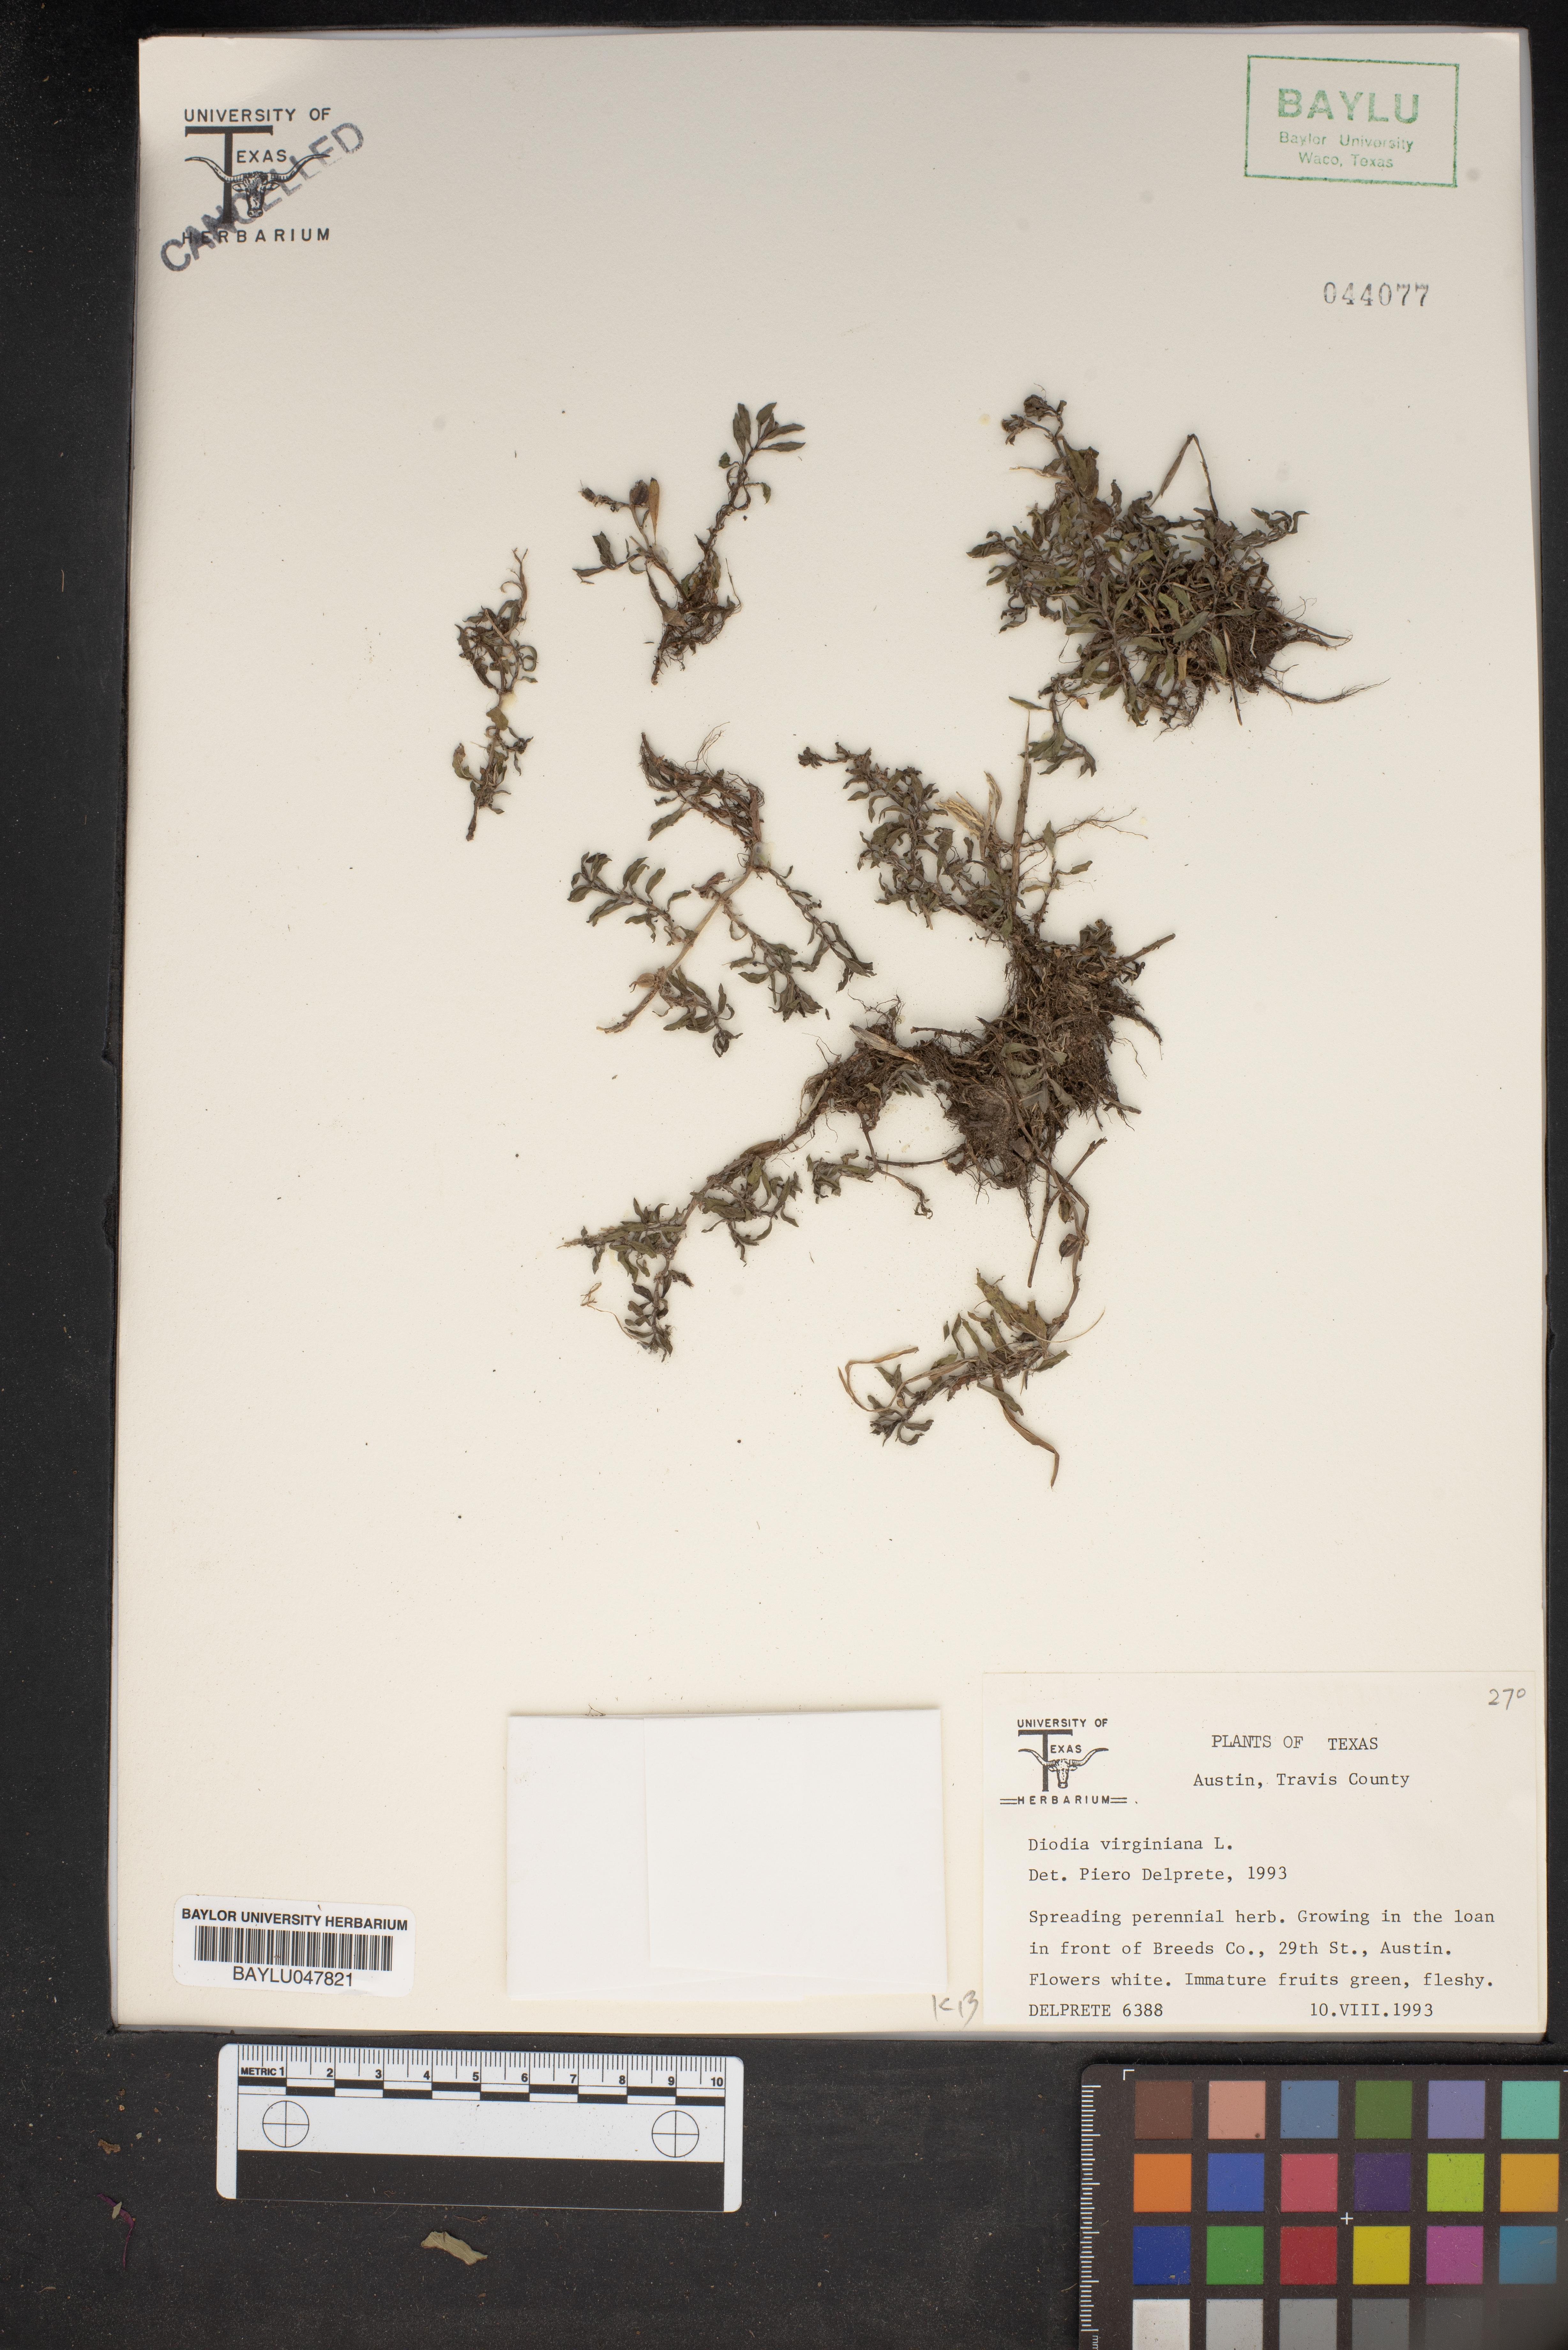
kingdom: Plantae
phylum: Tracheophyta
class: Magnoliopsida
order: Gentianales
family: Rubiaceae
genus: Diodia
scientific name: Diodia virginiana
